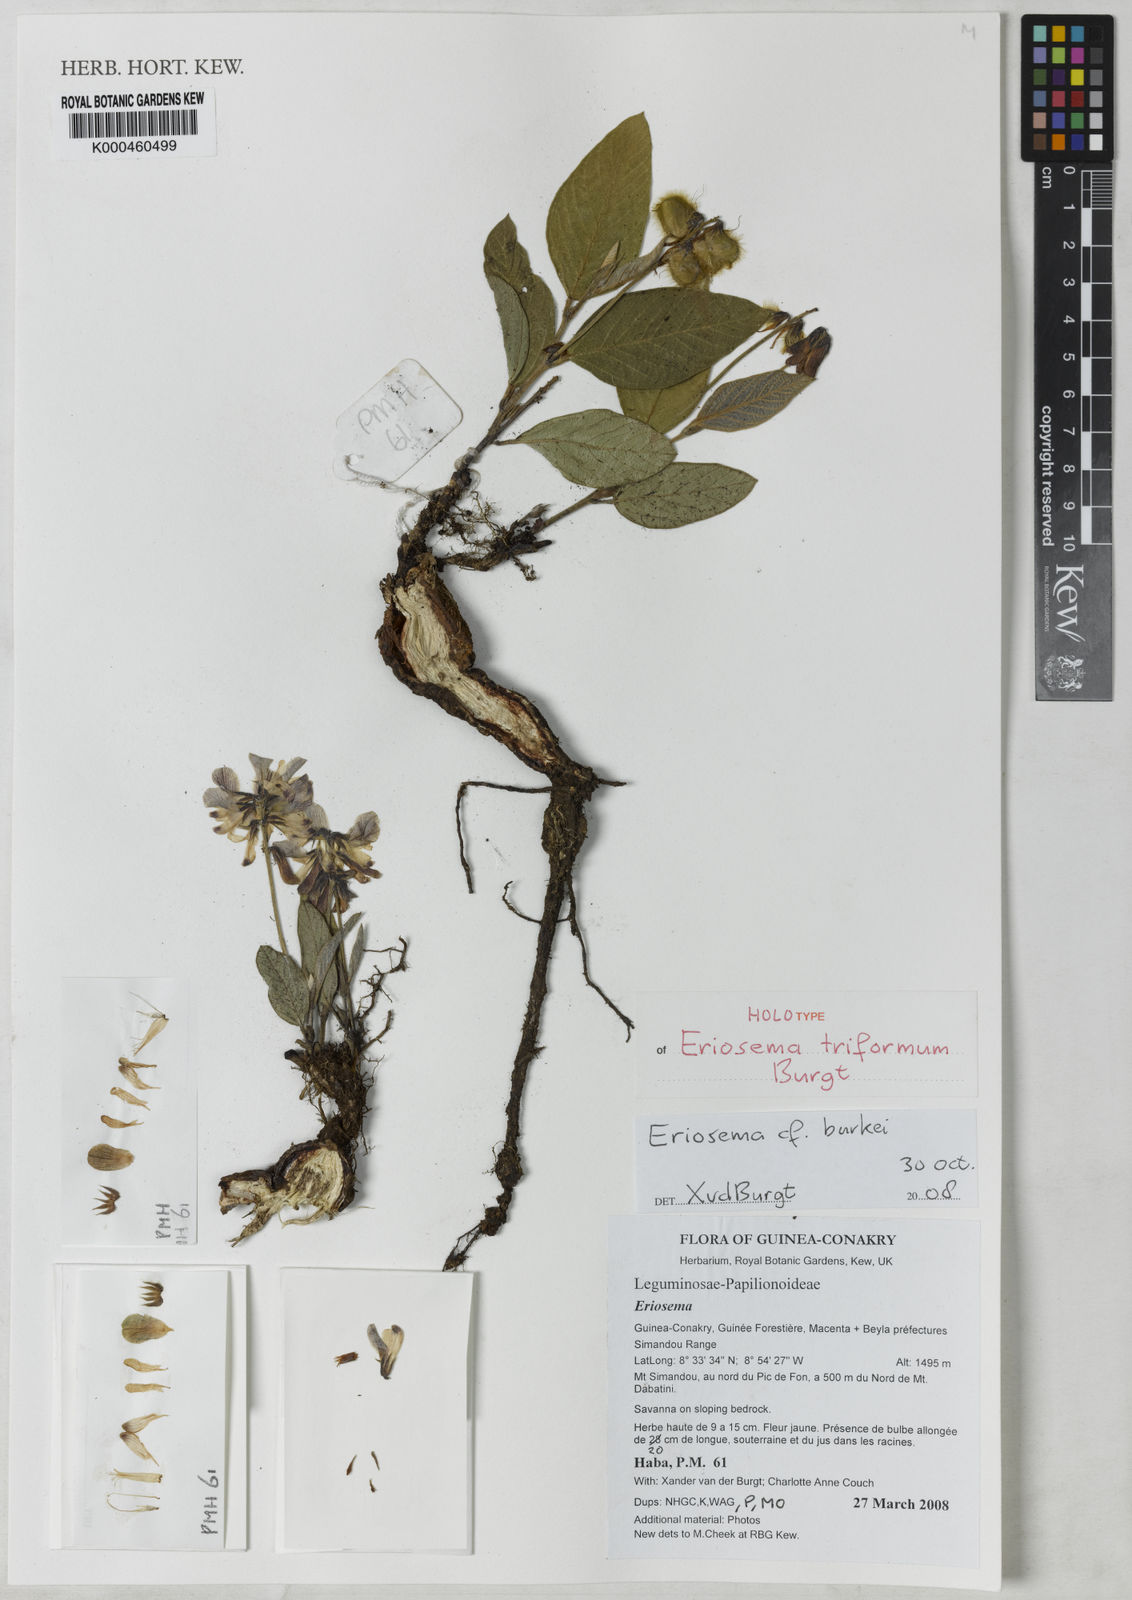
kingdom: Plantae
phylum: Tracheophyta
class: Magnoliopsida
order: Fabales
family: Fabaceae
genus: Eriosema
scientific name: Eriosema triformum
